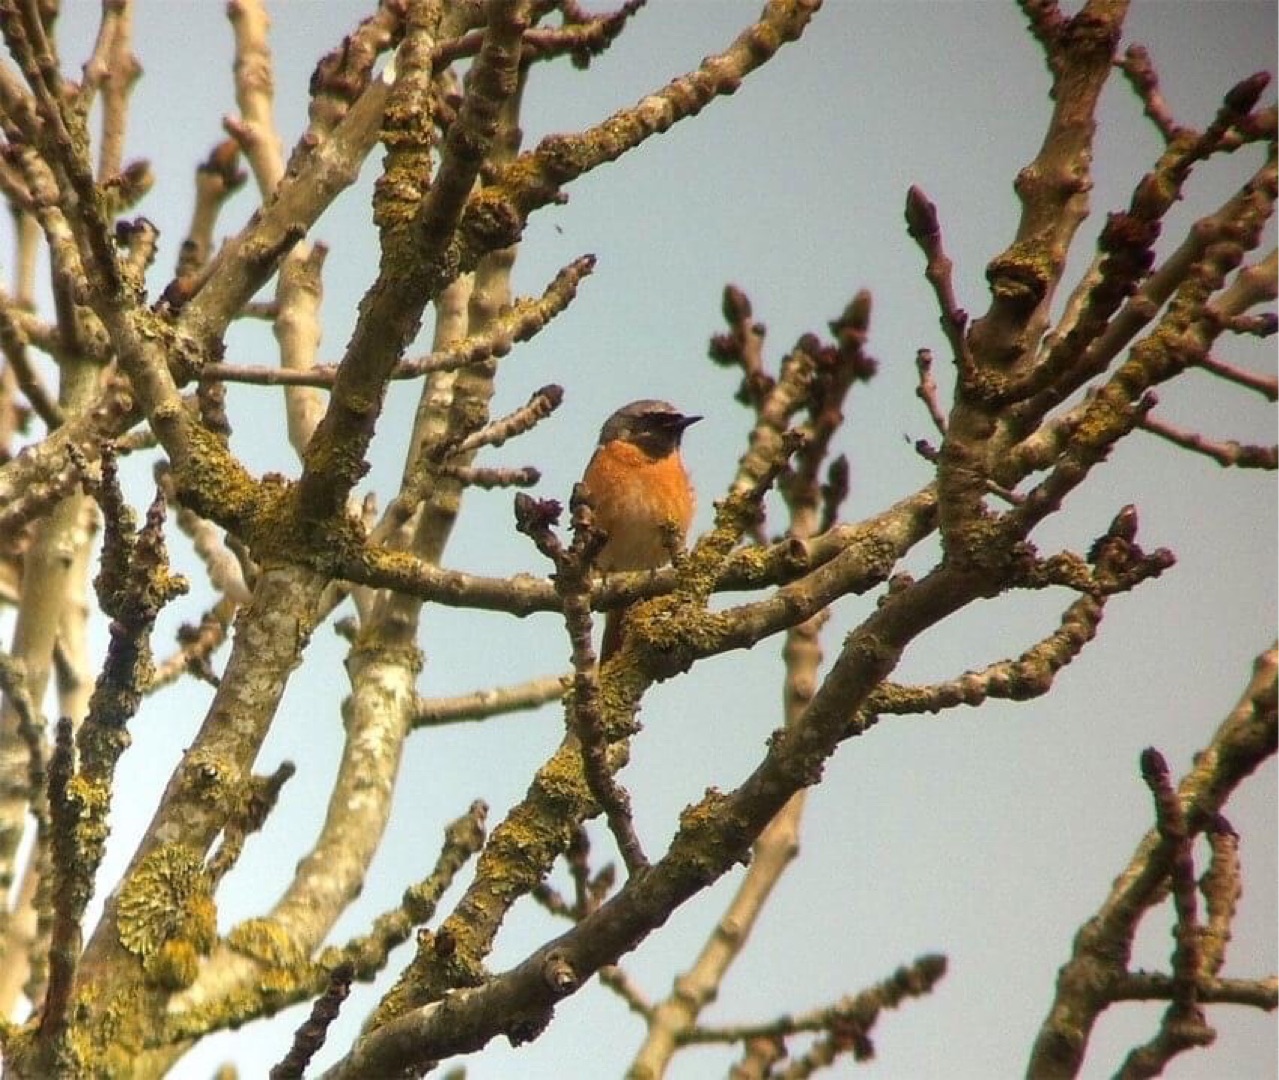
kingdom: Animalia
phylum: Chordata
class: Aves
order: Passeriformes
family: Muscicapidae
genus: Phoenicurus
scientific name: Phoenicurus phoenicurus
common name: Rødstjert
